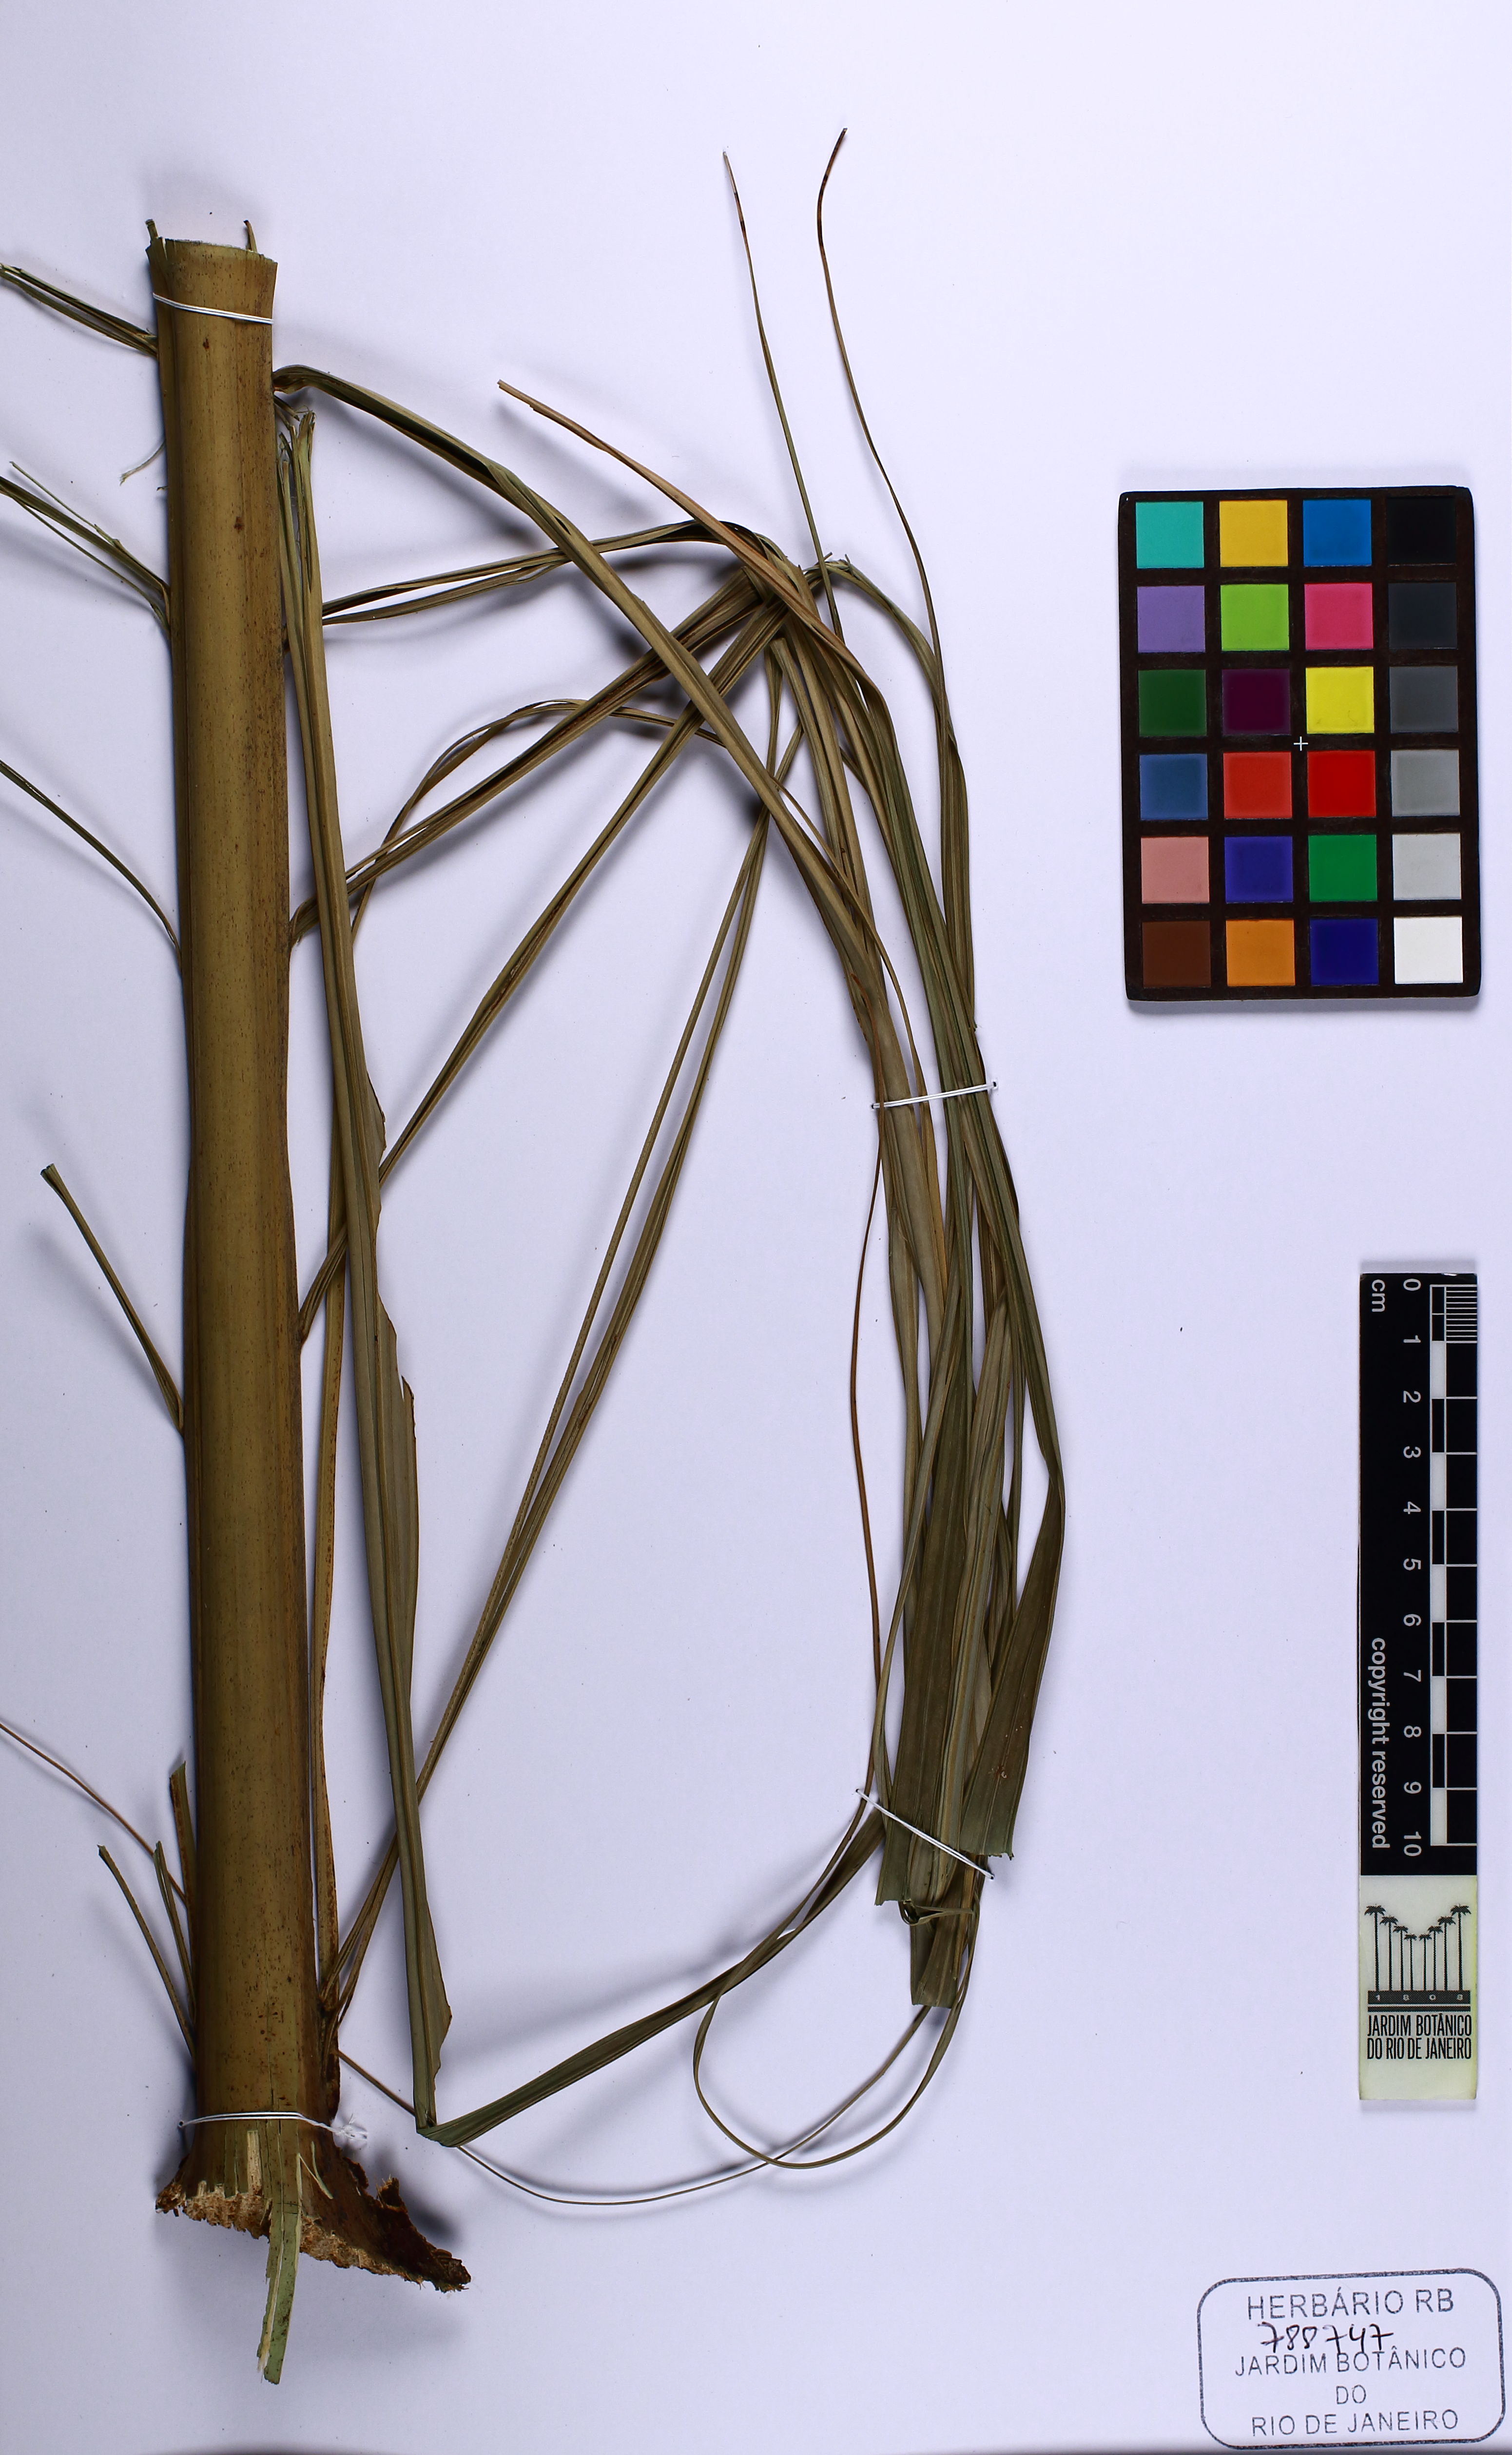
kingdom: Plantae
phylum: Tracheophyta
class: Liliopsida
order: Arecales
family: Arecaceae
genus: Euterpe
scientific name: Euterpe edulis
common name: Assai palm
